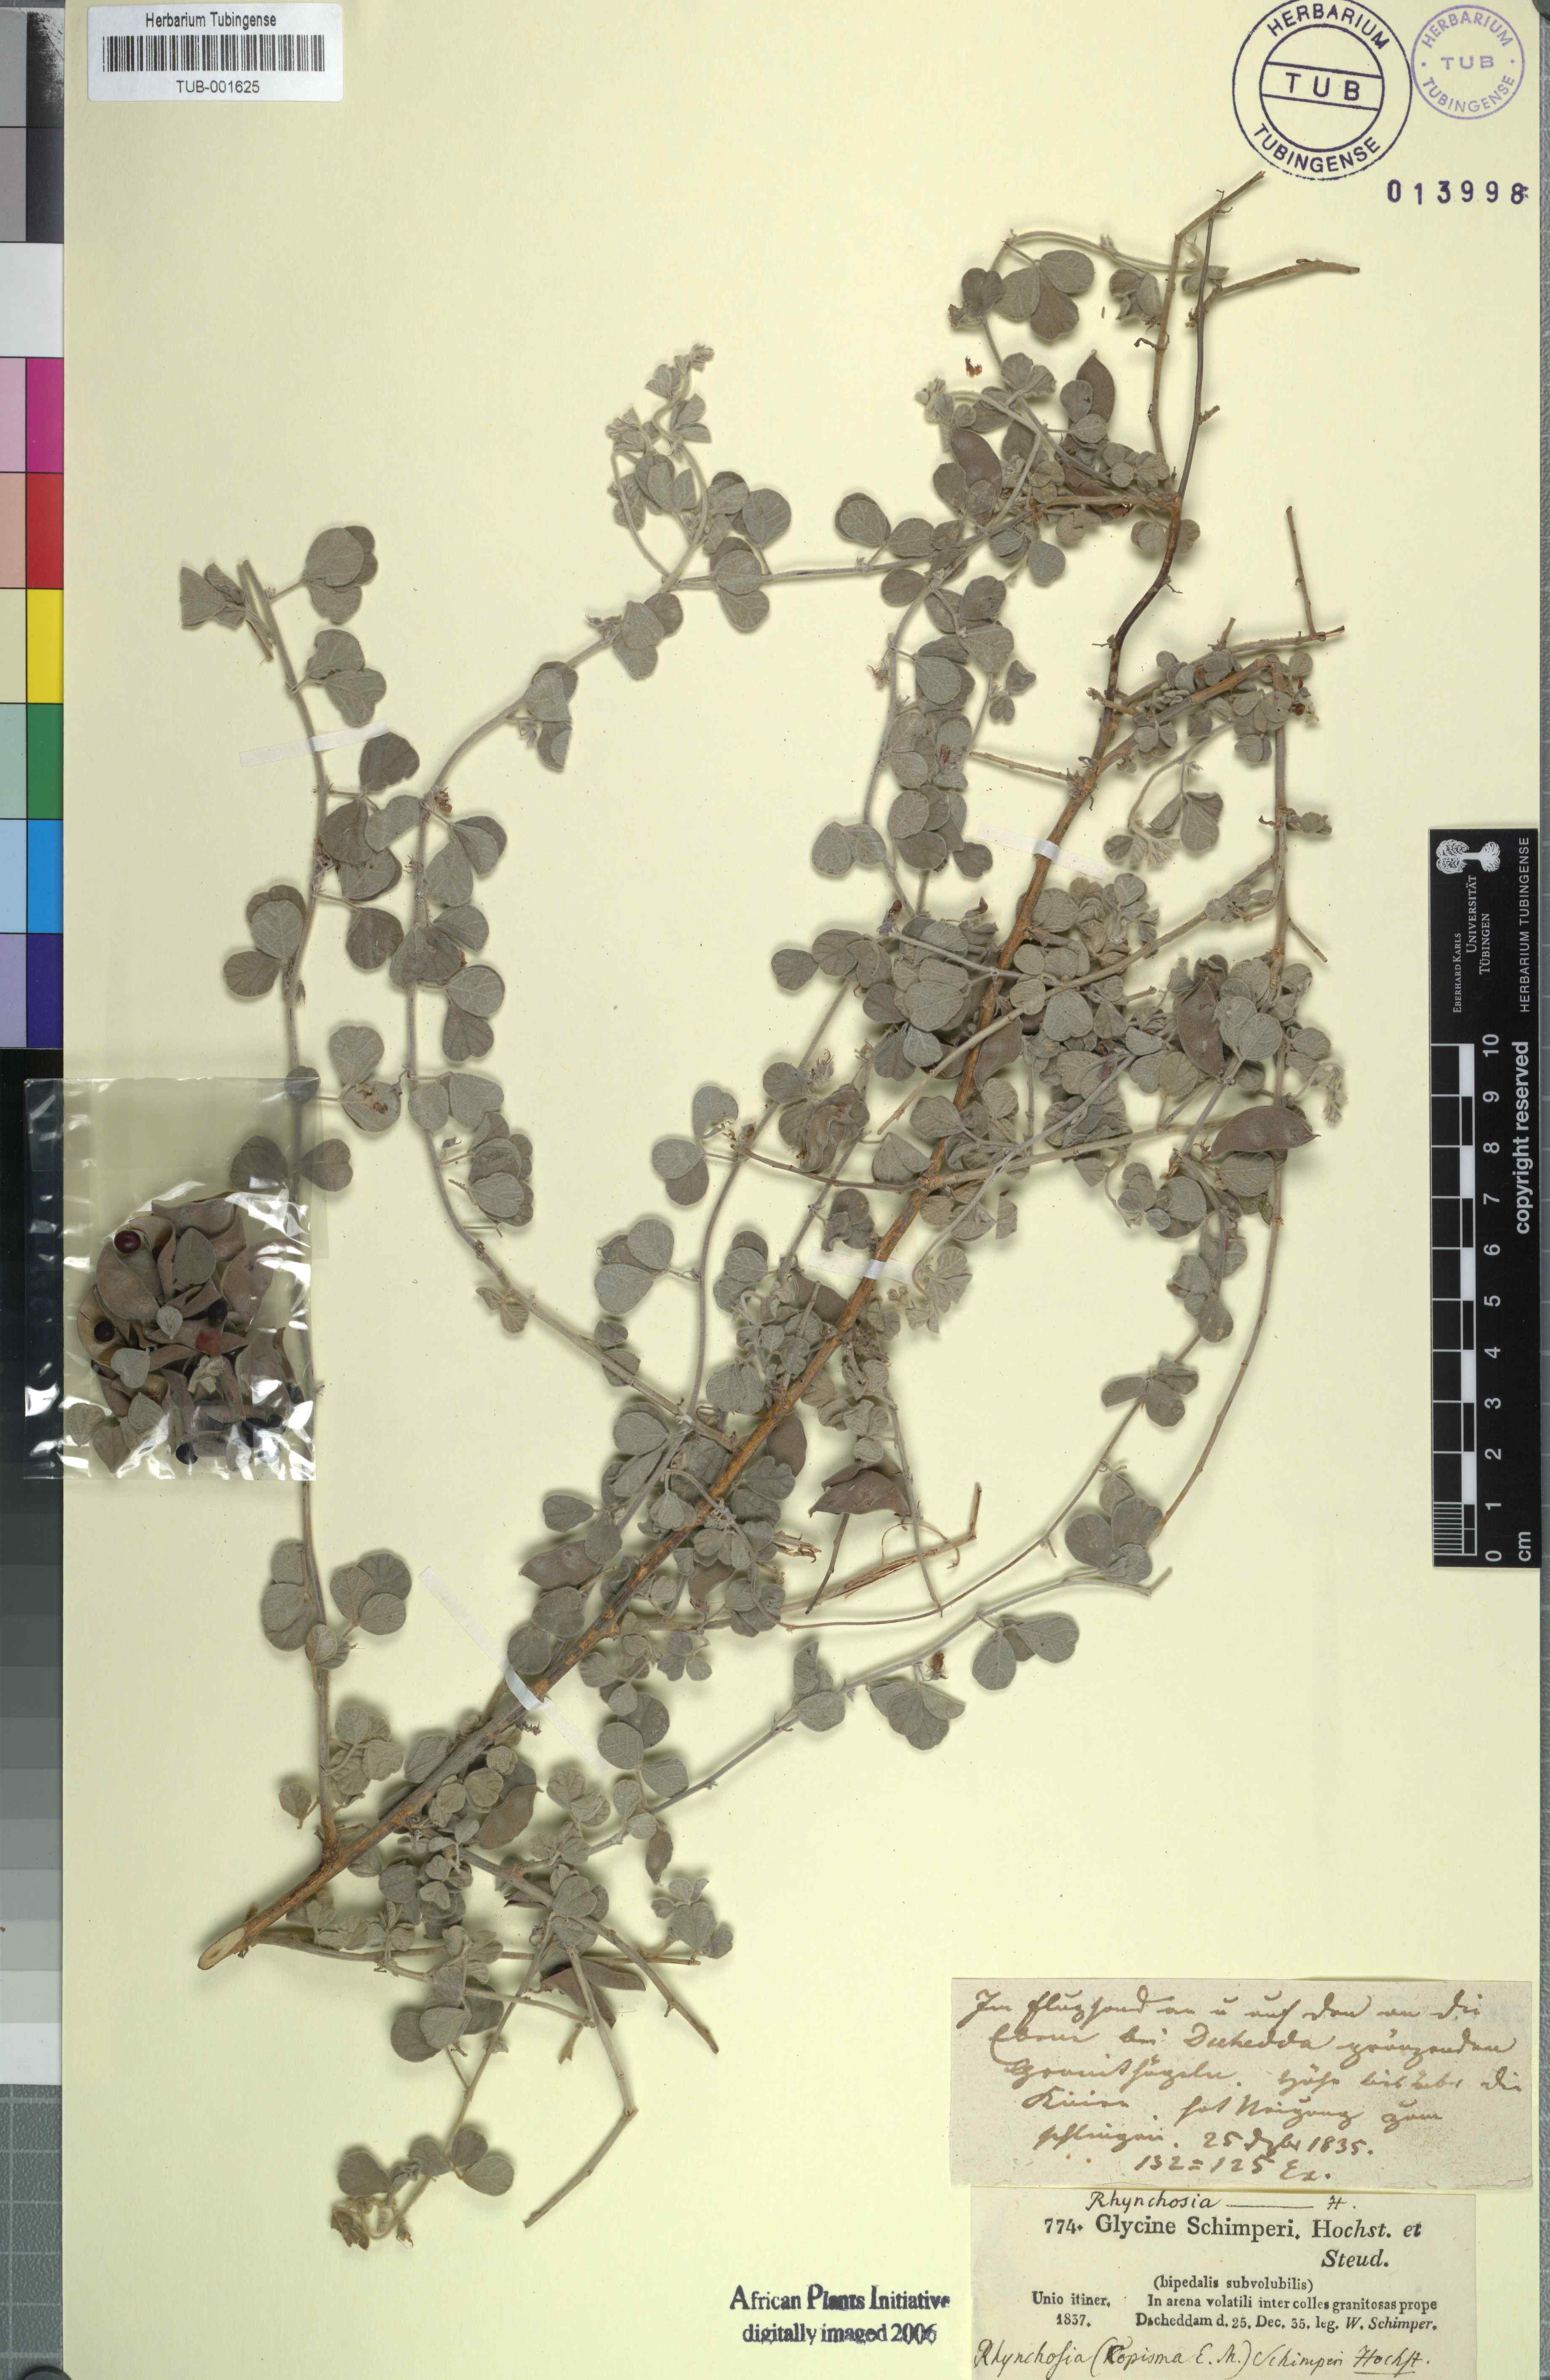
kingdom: Plantae
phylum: Tracheophyta
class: Magnoliopsida
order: Fabales
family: Fabaceae
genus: Rhynchosia
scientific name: Rhynchosia schimperi
